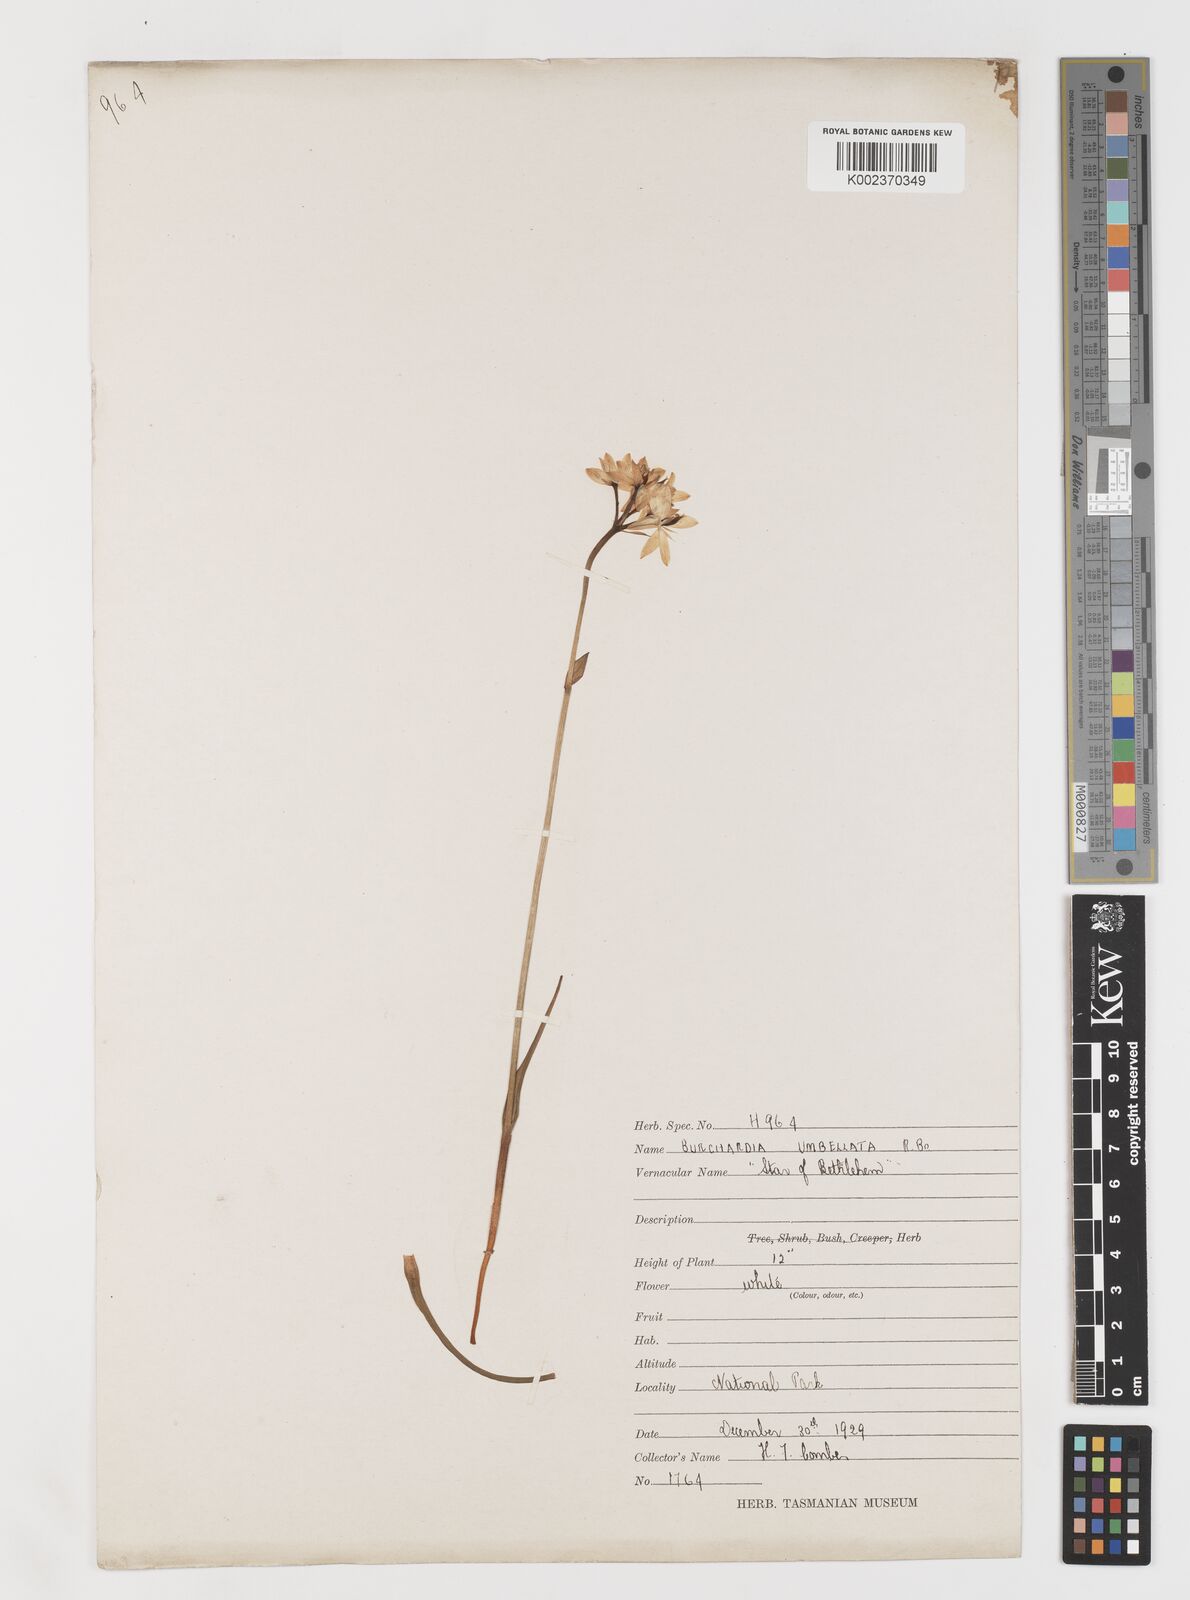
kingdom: Plantae
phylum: Tracheophyta
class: Liliopsida
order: Liliales
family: Colchicaceae
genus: Burchardia
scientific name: Burchardia umbellata
